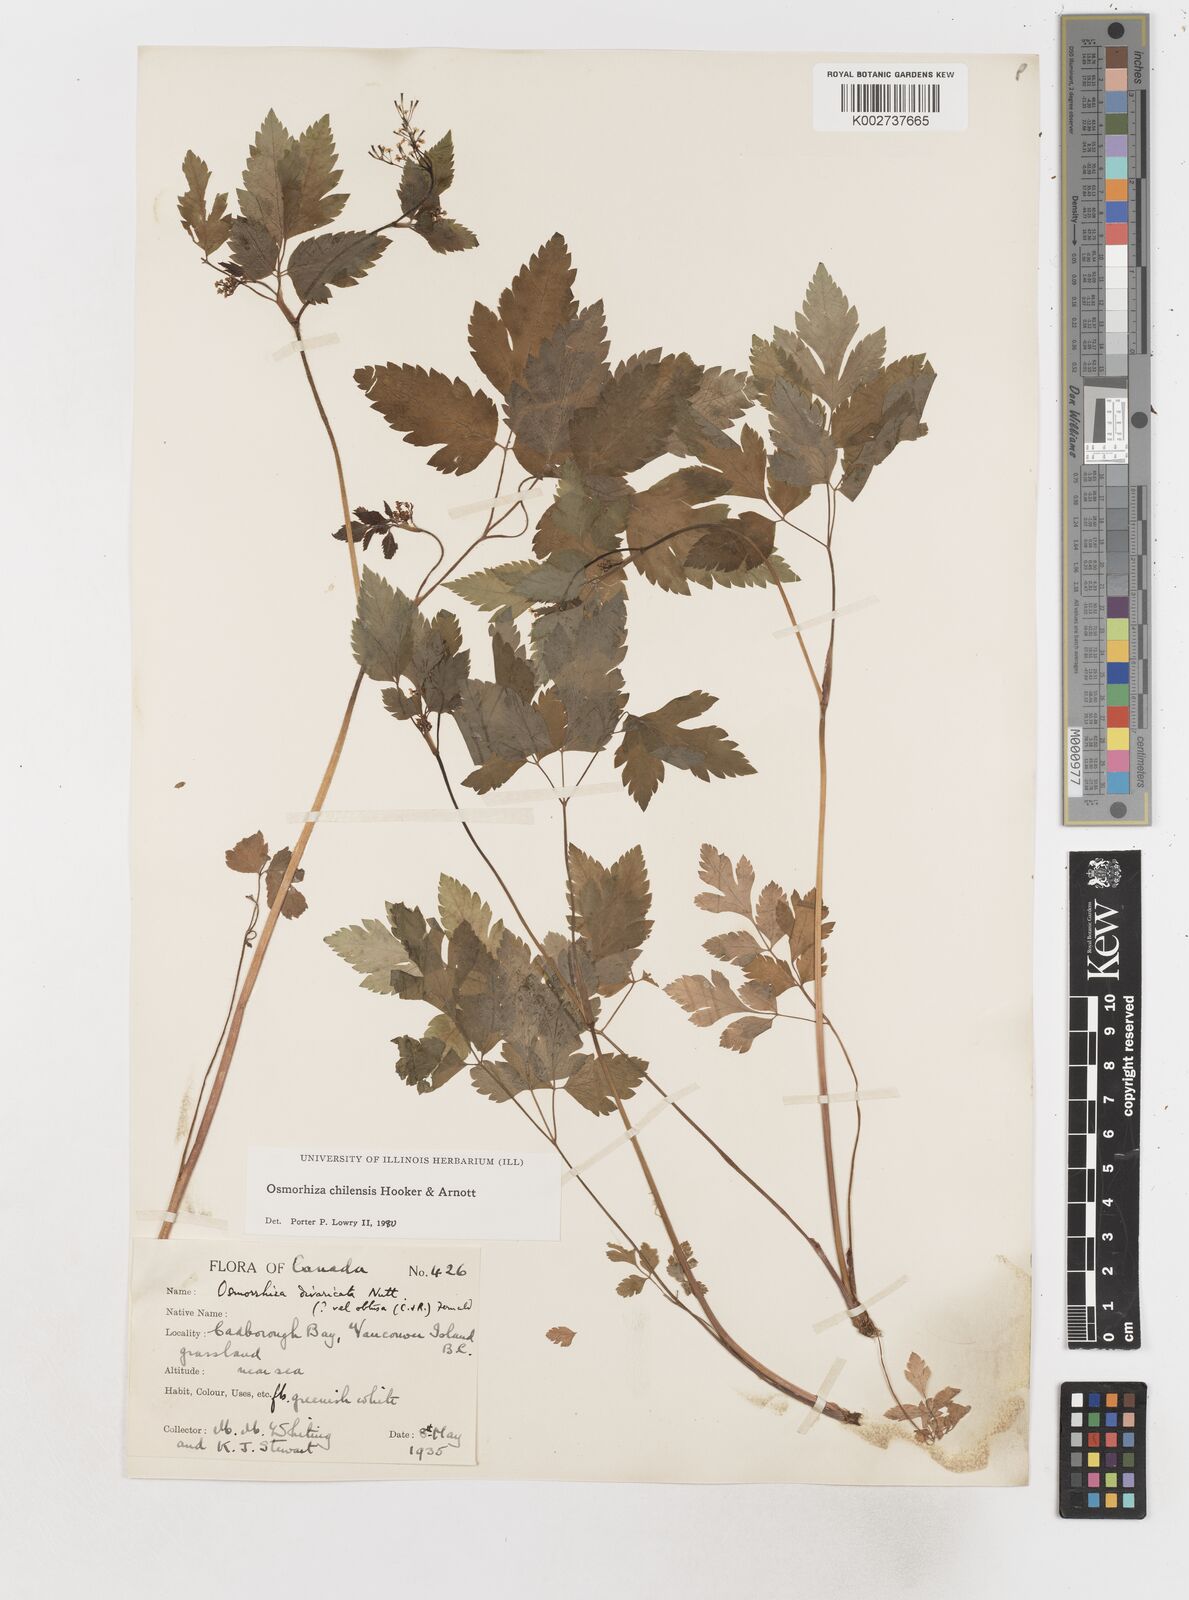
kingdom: Plantae
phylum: Tracheophyta
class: Magnoliopsida
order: Apiales
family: Apiaceae
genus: Osmorhiza
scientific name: Osmorhiza berteroi
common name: Mountain sweet cicely
